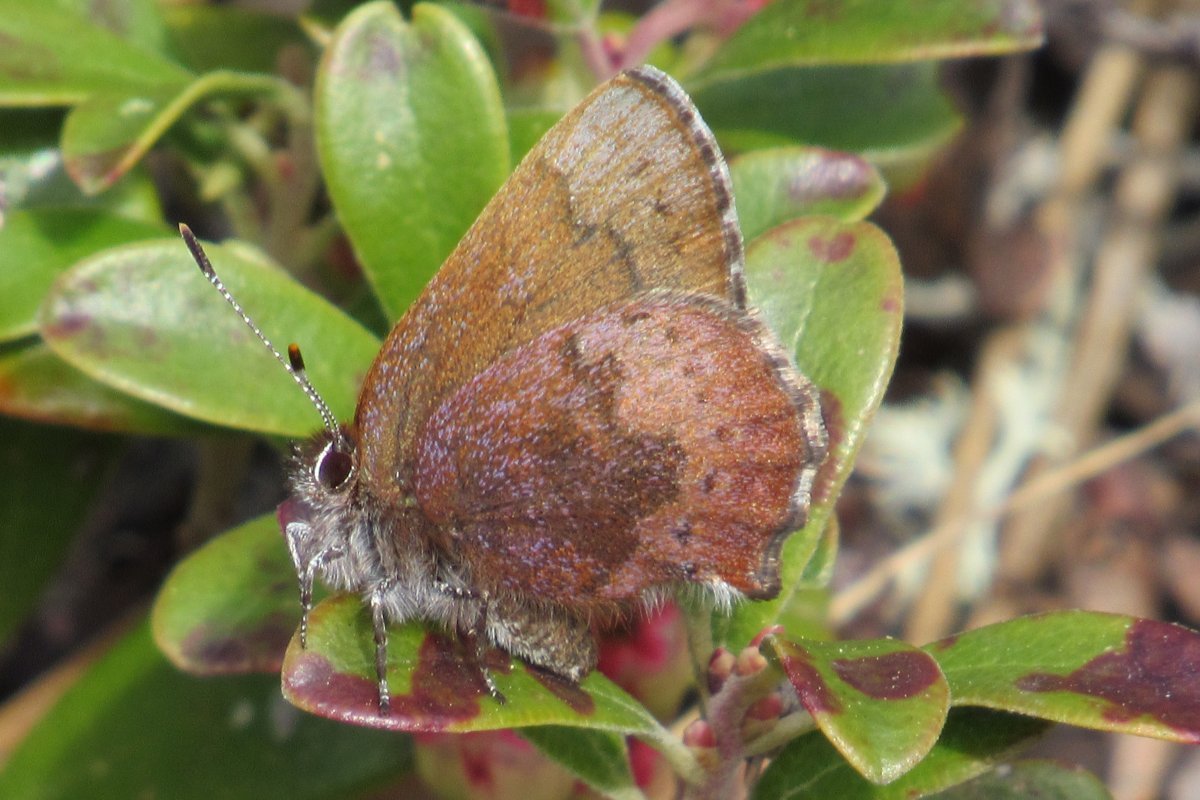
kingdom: Animalia
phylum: Arthropoda
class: Insecta
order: Lepidoptera
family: Lycaenidae
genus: Incisalia
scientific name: Incisalia irioides
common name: Brown Elfin
